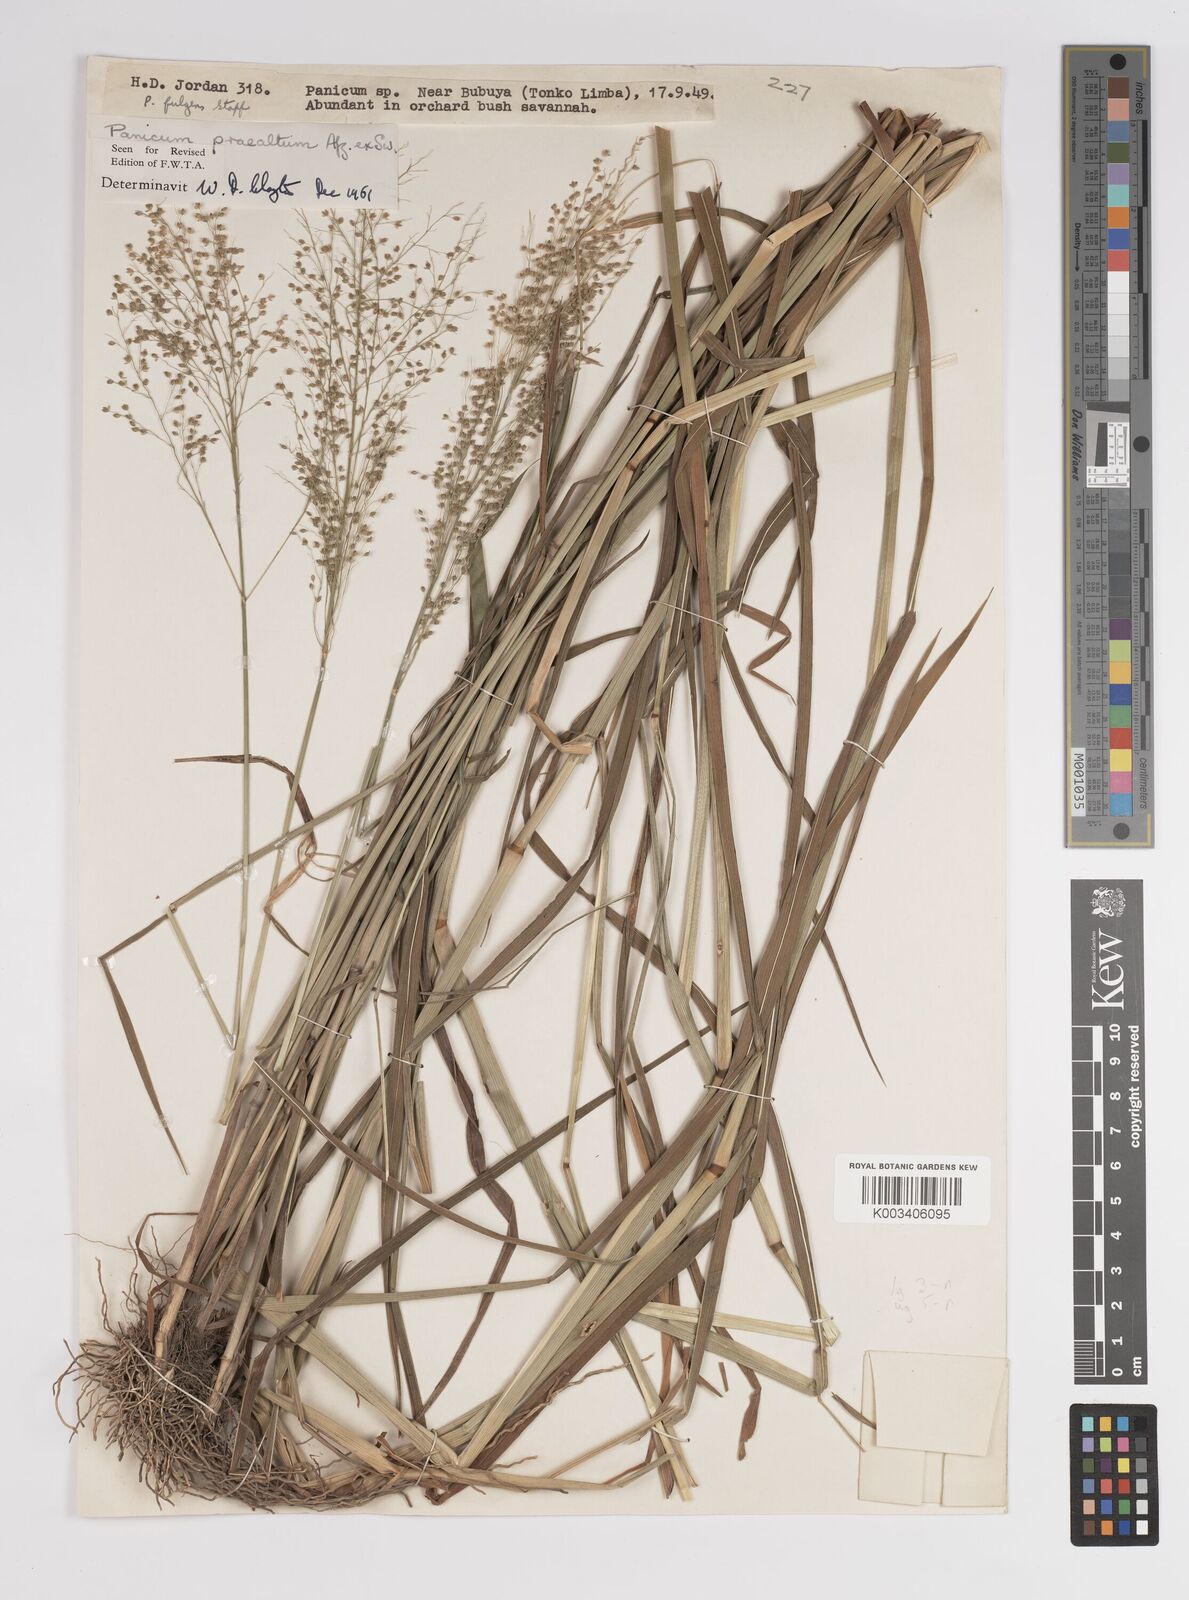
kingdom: Plantae
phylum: Tracheophyta
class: Liliopsida
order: Poales
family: Poaceae
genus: Trichanthecium
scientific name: Trichanthecium praealtum
